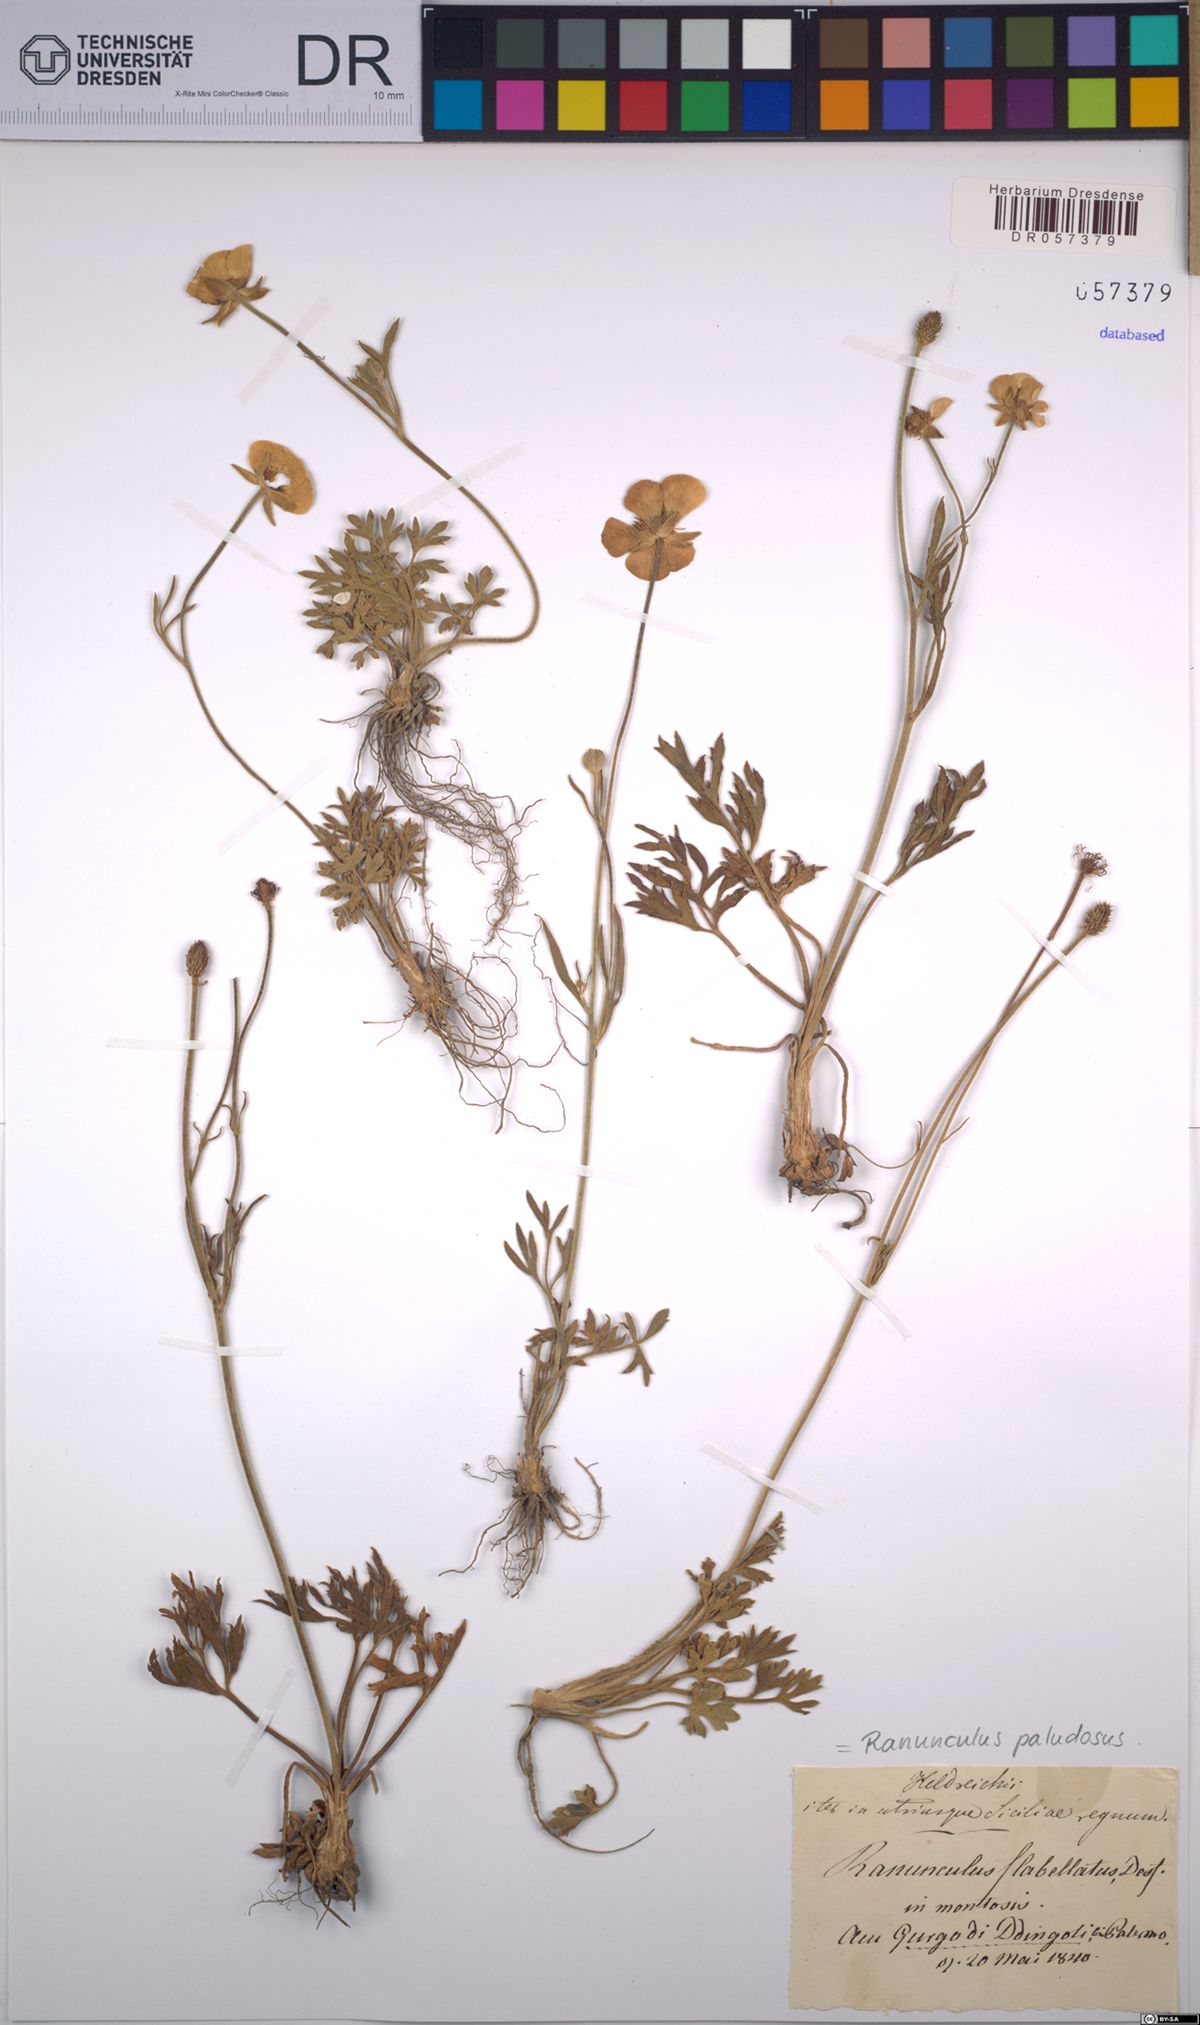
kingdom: Plantae
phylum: Tracheophyta
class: Magnoliopsida
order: Ranunculales
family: Ranunculaceae
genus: Ranunculus
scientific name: Ranunculus paludosus
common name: Jersey buttercup
